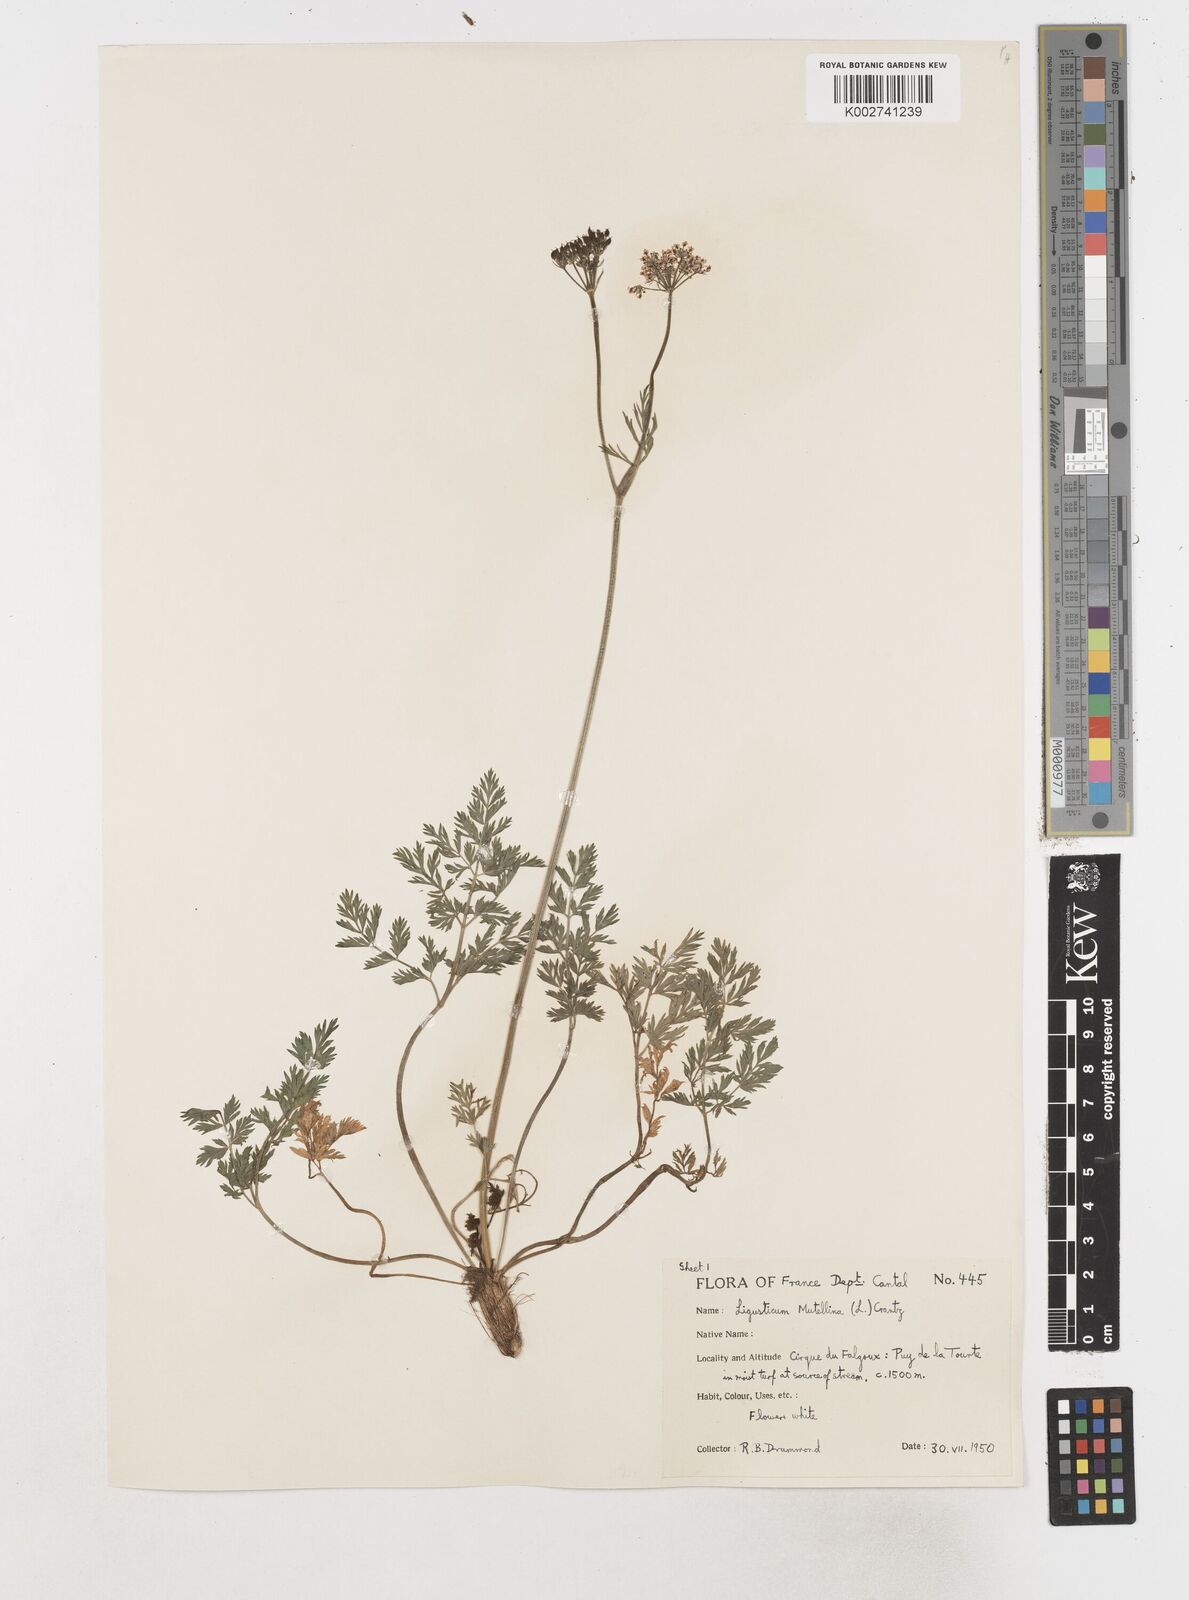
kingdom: Plantae
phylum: Tracheophyta
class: Magnoliopsida
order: Apiales
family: Apiaceae
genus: Mutellina
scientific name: Mutellina adonidifolia
